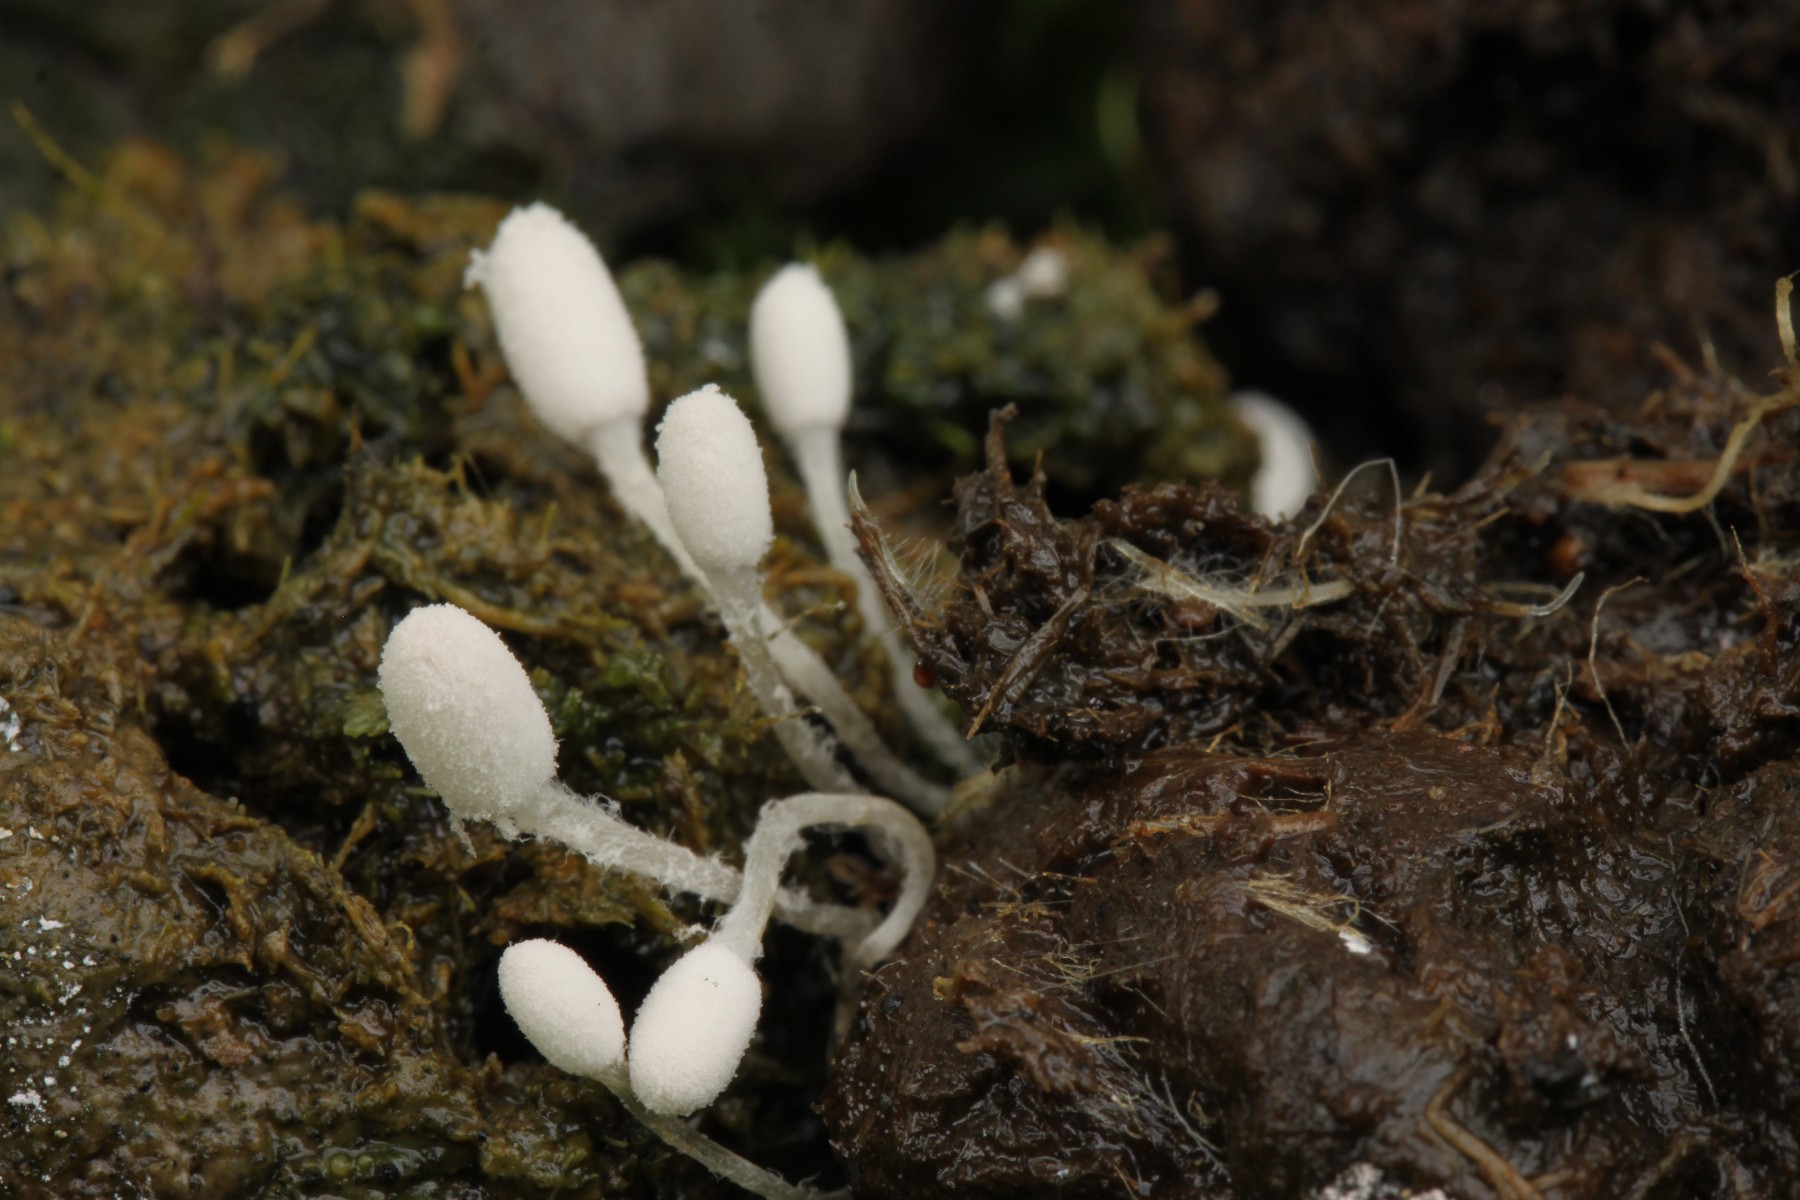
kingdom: Fungi
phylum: Basidiomycota
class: Agaricomycetes
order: Agaricales
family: Psathyrellaceae
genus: Coprinopsis
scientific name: Coprinopsis foetidella
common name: stinkende blækhat
